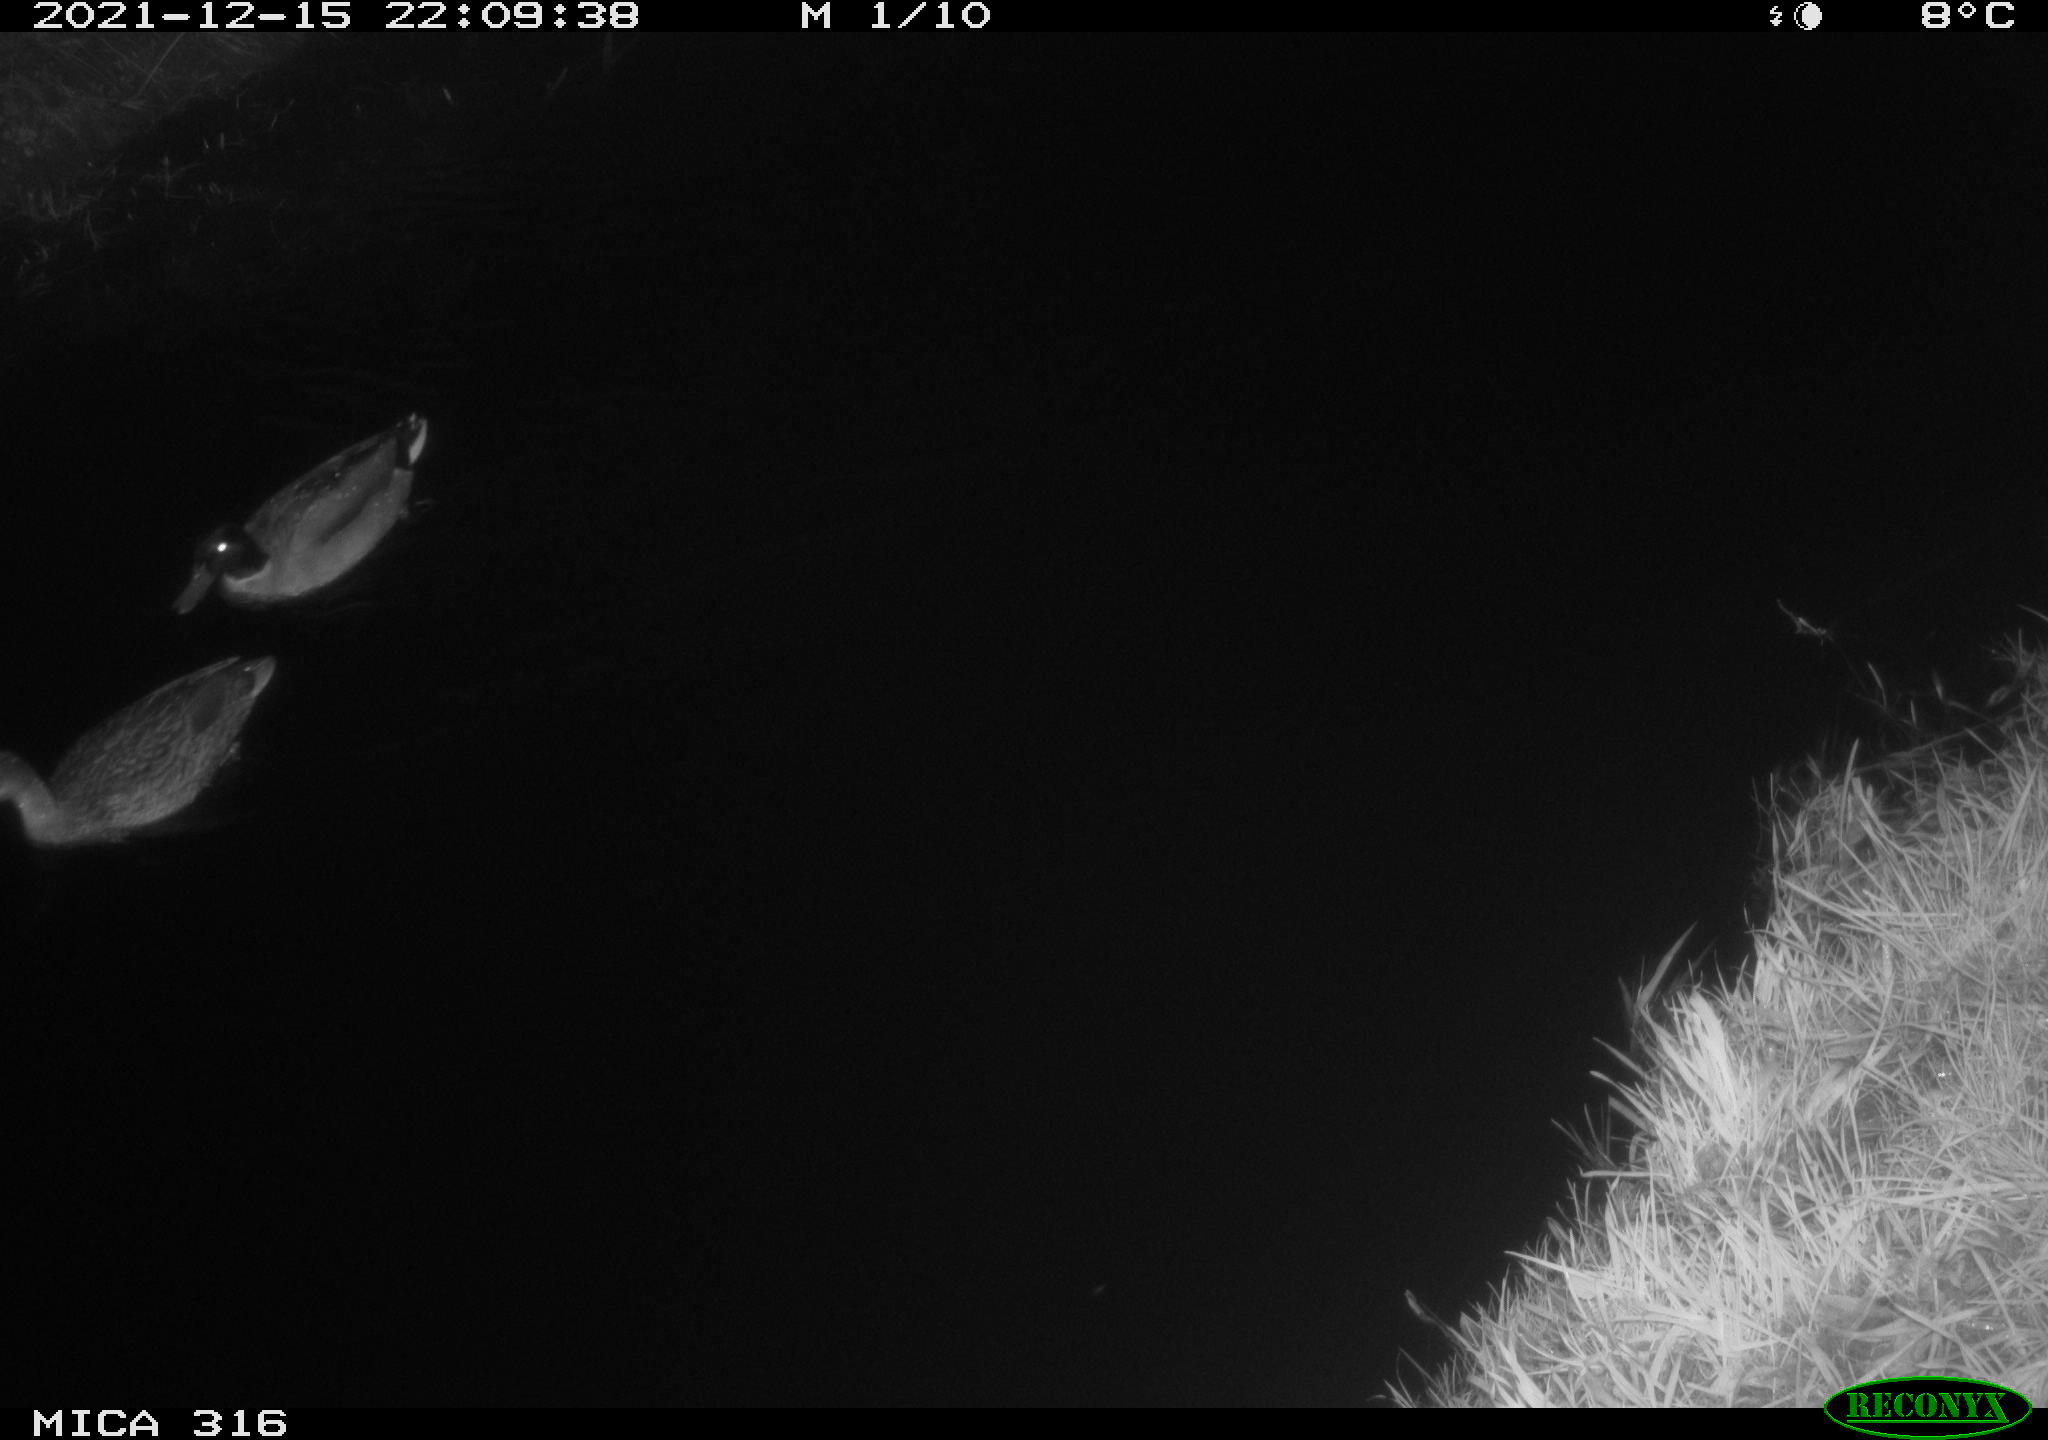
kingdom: Animalia
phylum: Chordata
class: Aves
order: Anseriformes
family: Anatidae
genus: Anas
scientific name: Anas
